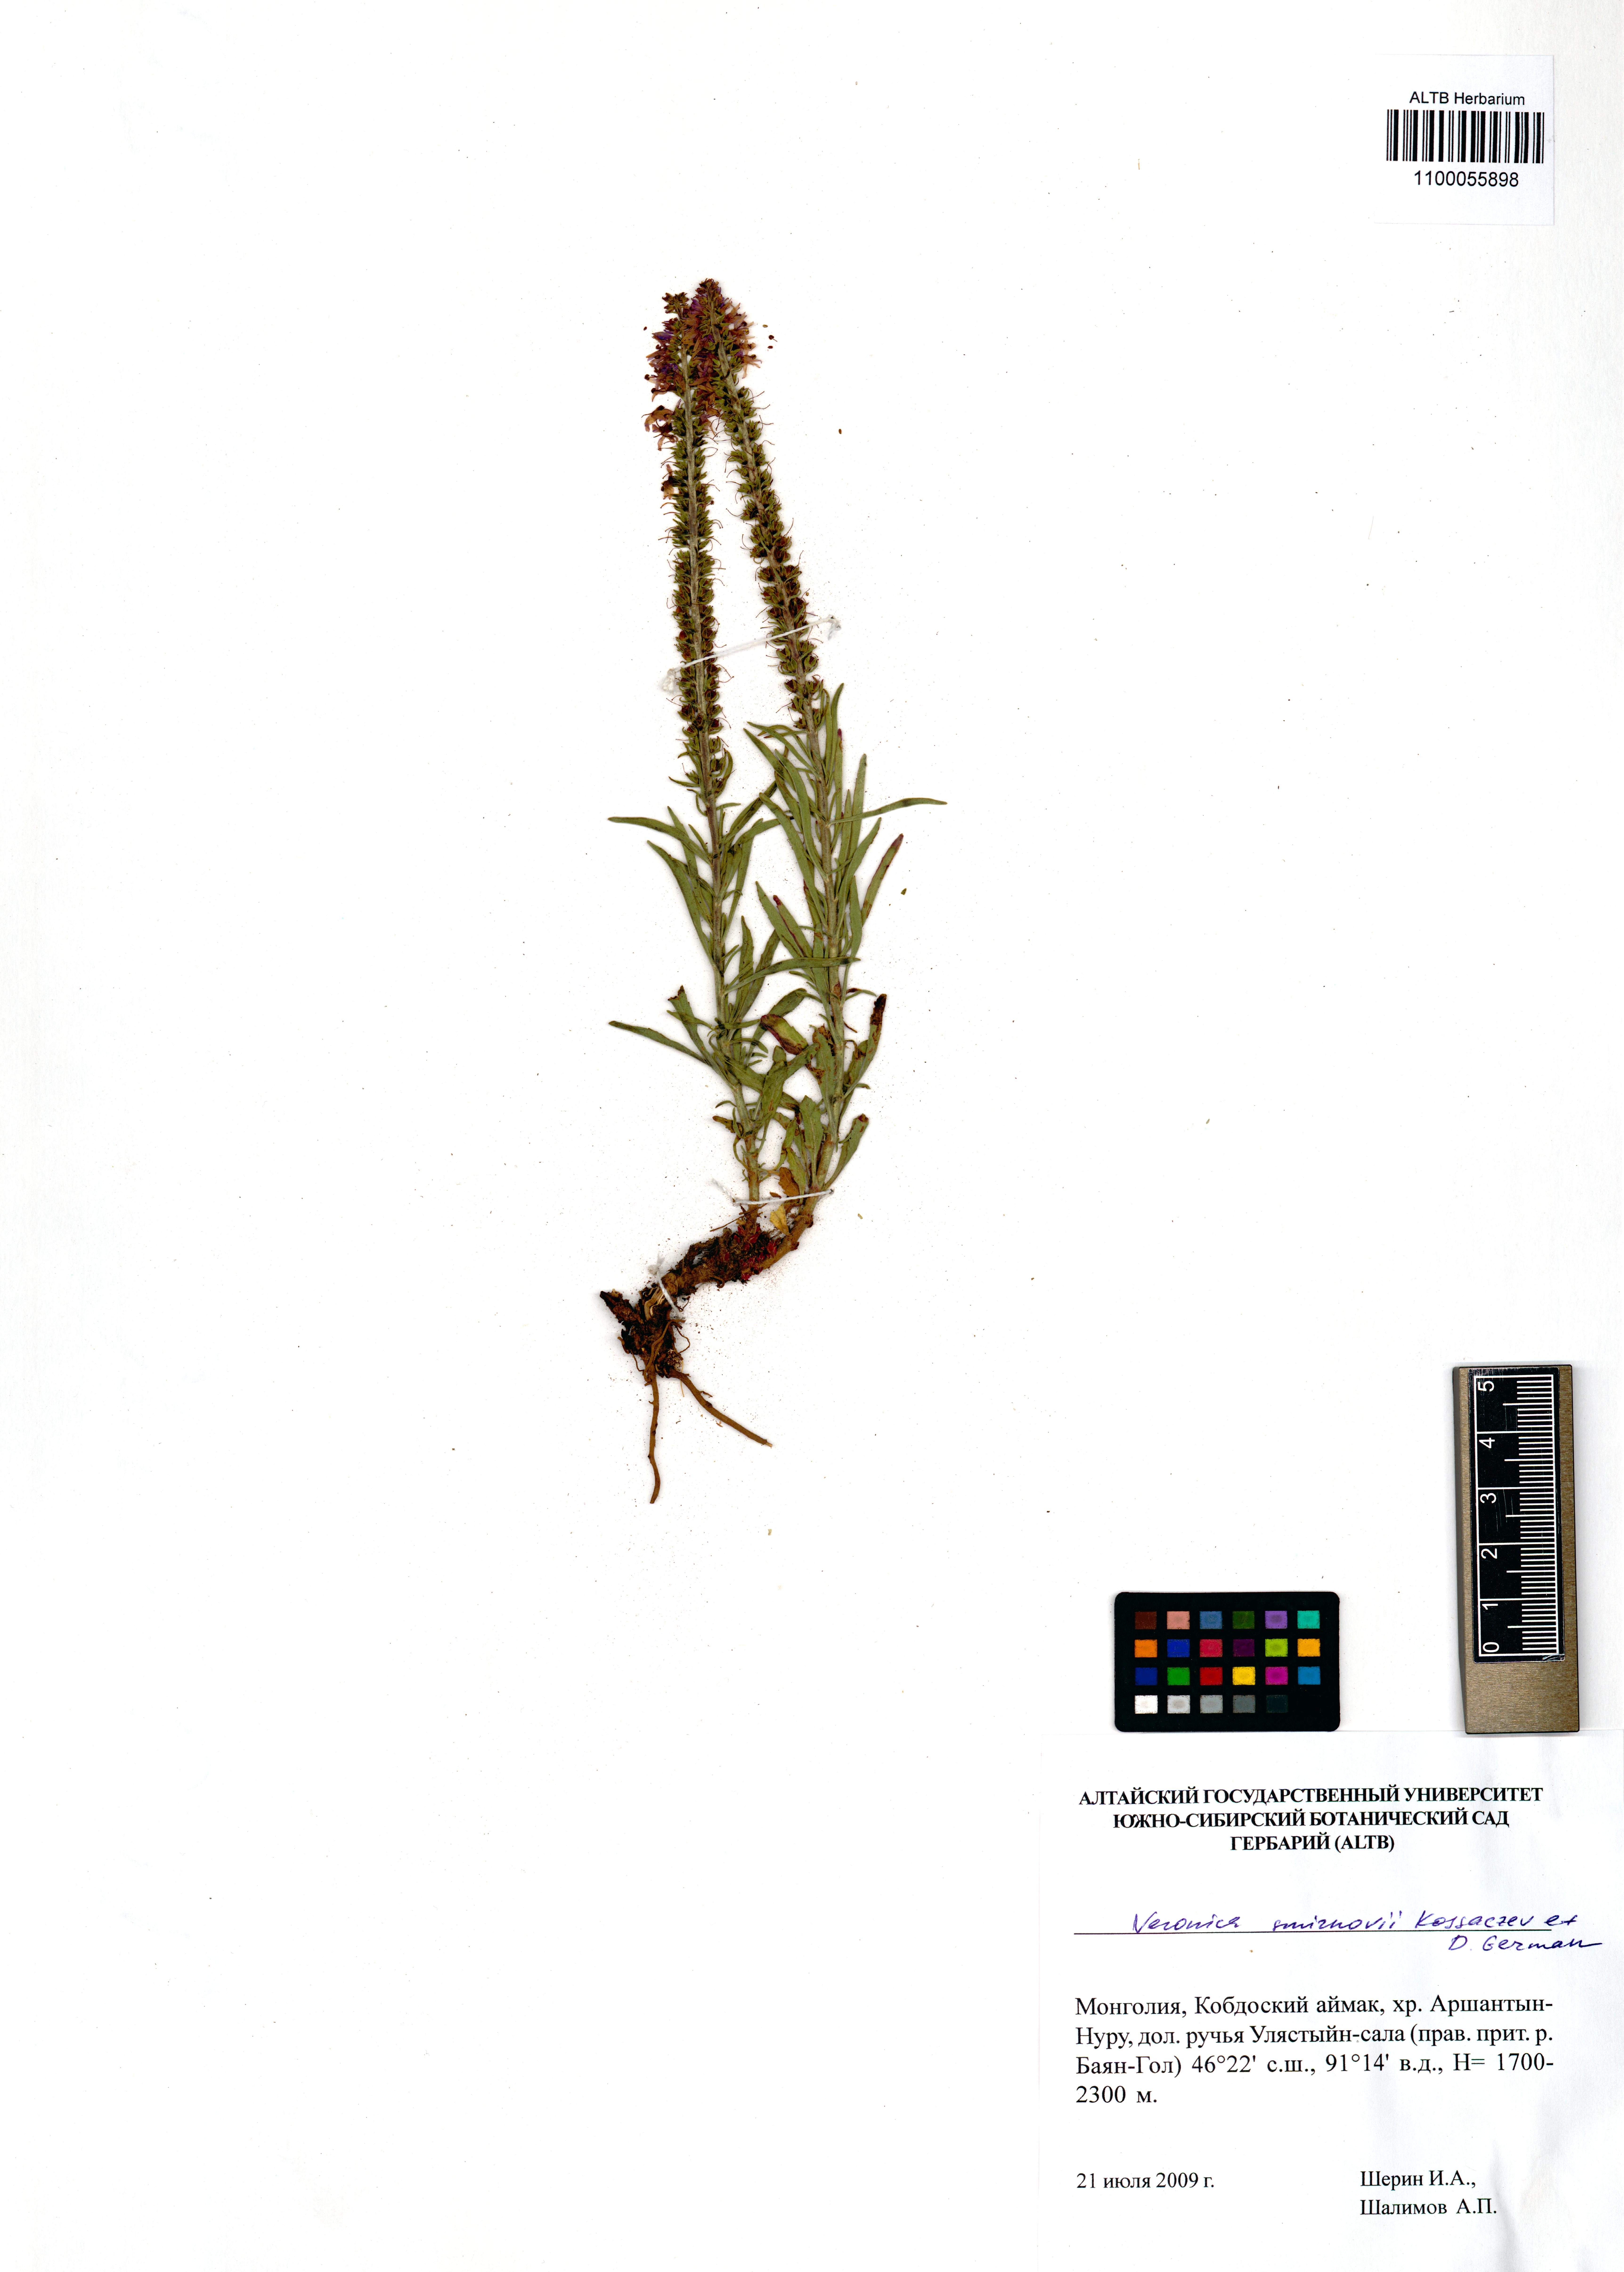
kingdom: Plantae
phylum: Tracheophyta
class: Magnoliopsida
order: Lamiales
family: Plantaginaceae
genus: Veronica
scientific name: Veronica smirnovii
